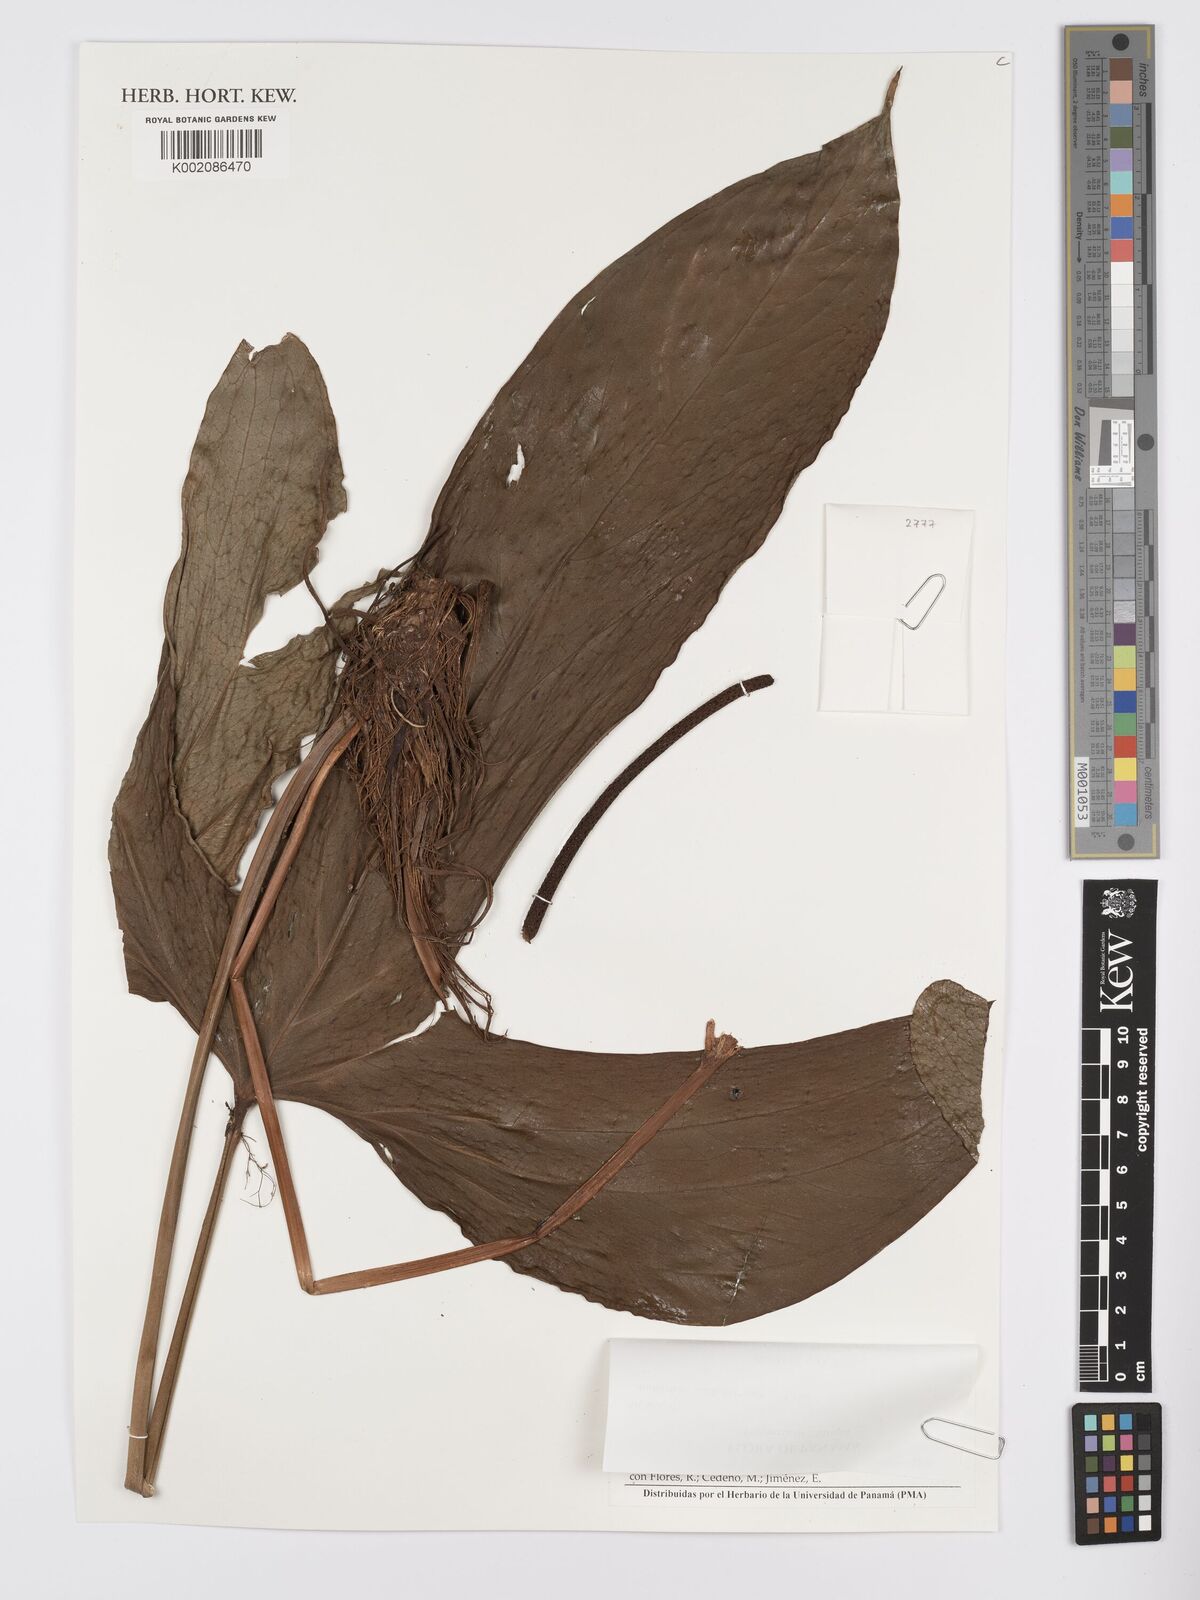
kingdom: Plantae
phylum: Tracheophyta
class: Liliopsida
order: Alismatales
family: Araceae
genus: Anthurium
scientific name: Anthurium madisonianum
